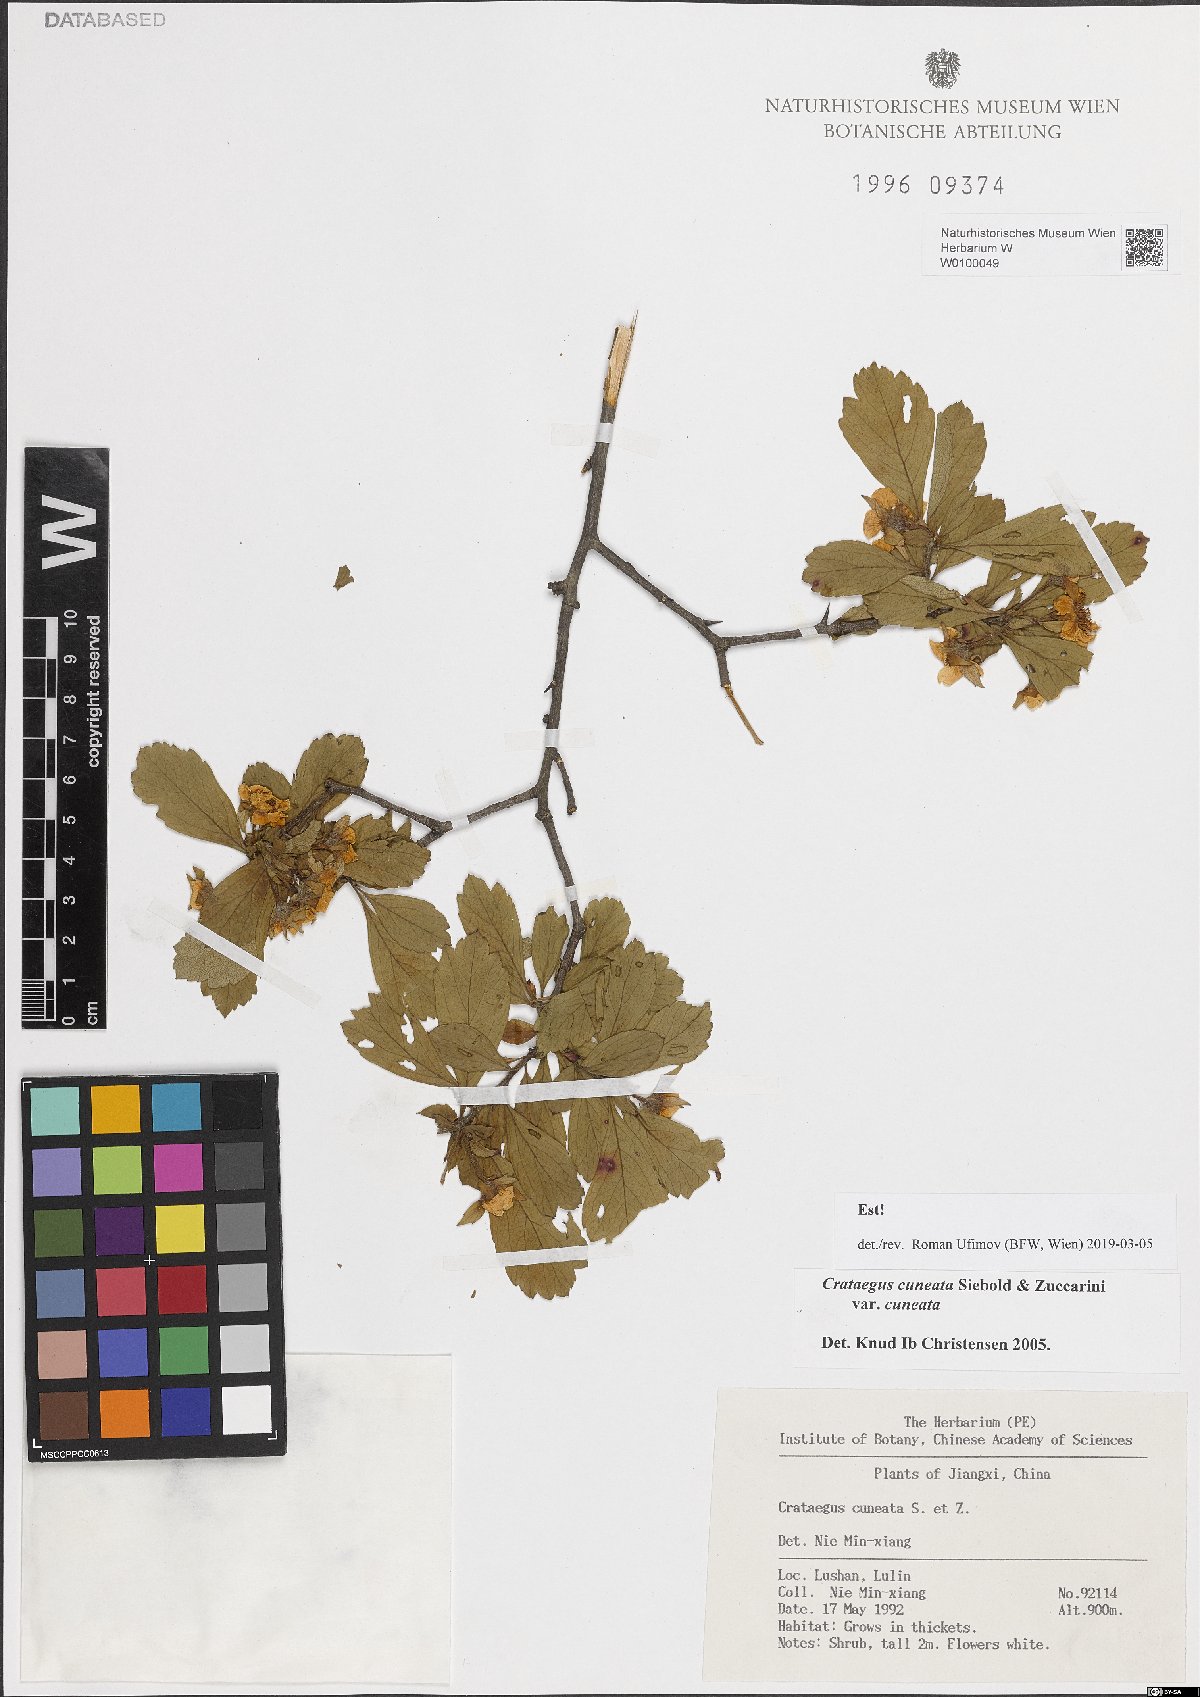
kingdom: Plantae
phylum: Tracheophyta
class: Magnoliopsida
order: Rosales
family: Rosaceae
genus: Crataegus
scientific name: Crataegus cuneata
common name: Chinese hawthorn
